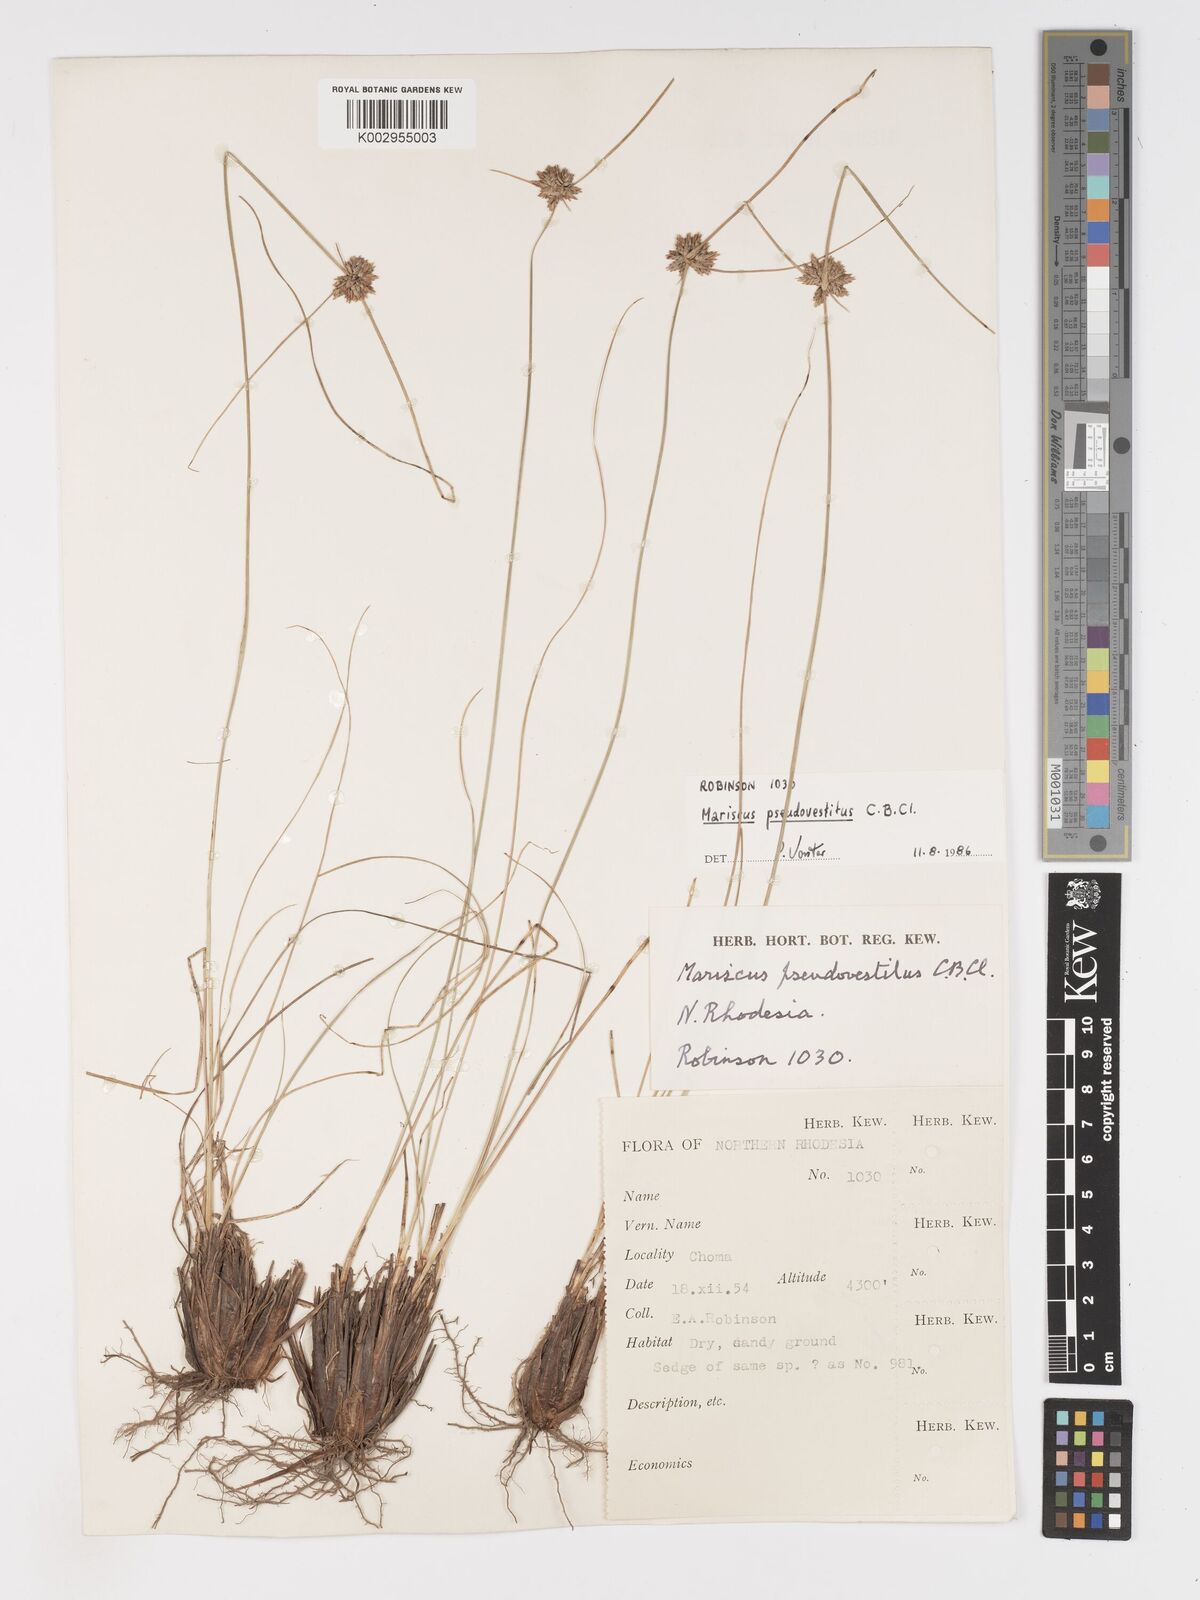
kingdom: Plantae
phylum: Tracheophyta
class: Liliopsida
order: Poales
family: Cyperaceae
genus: Cyperus
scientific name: Cyperus pseudovestitus
